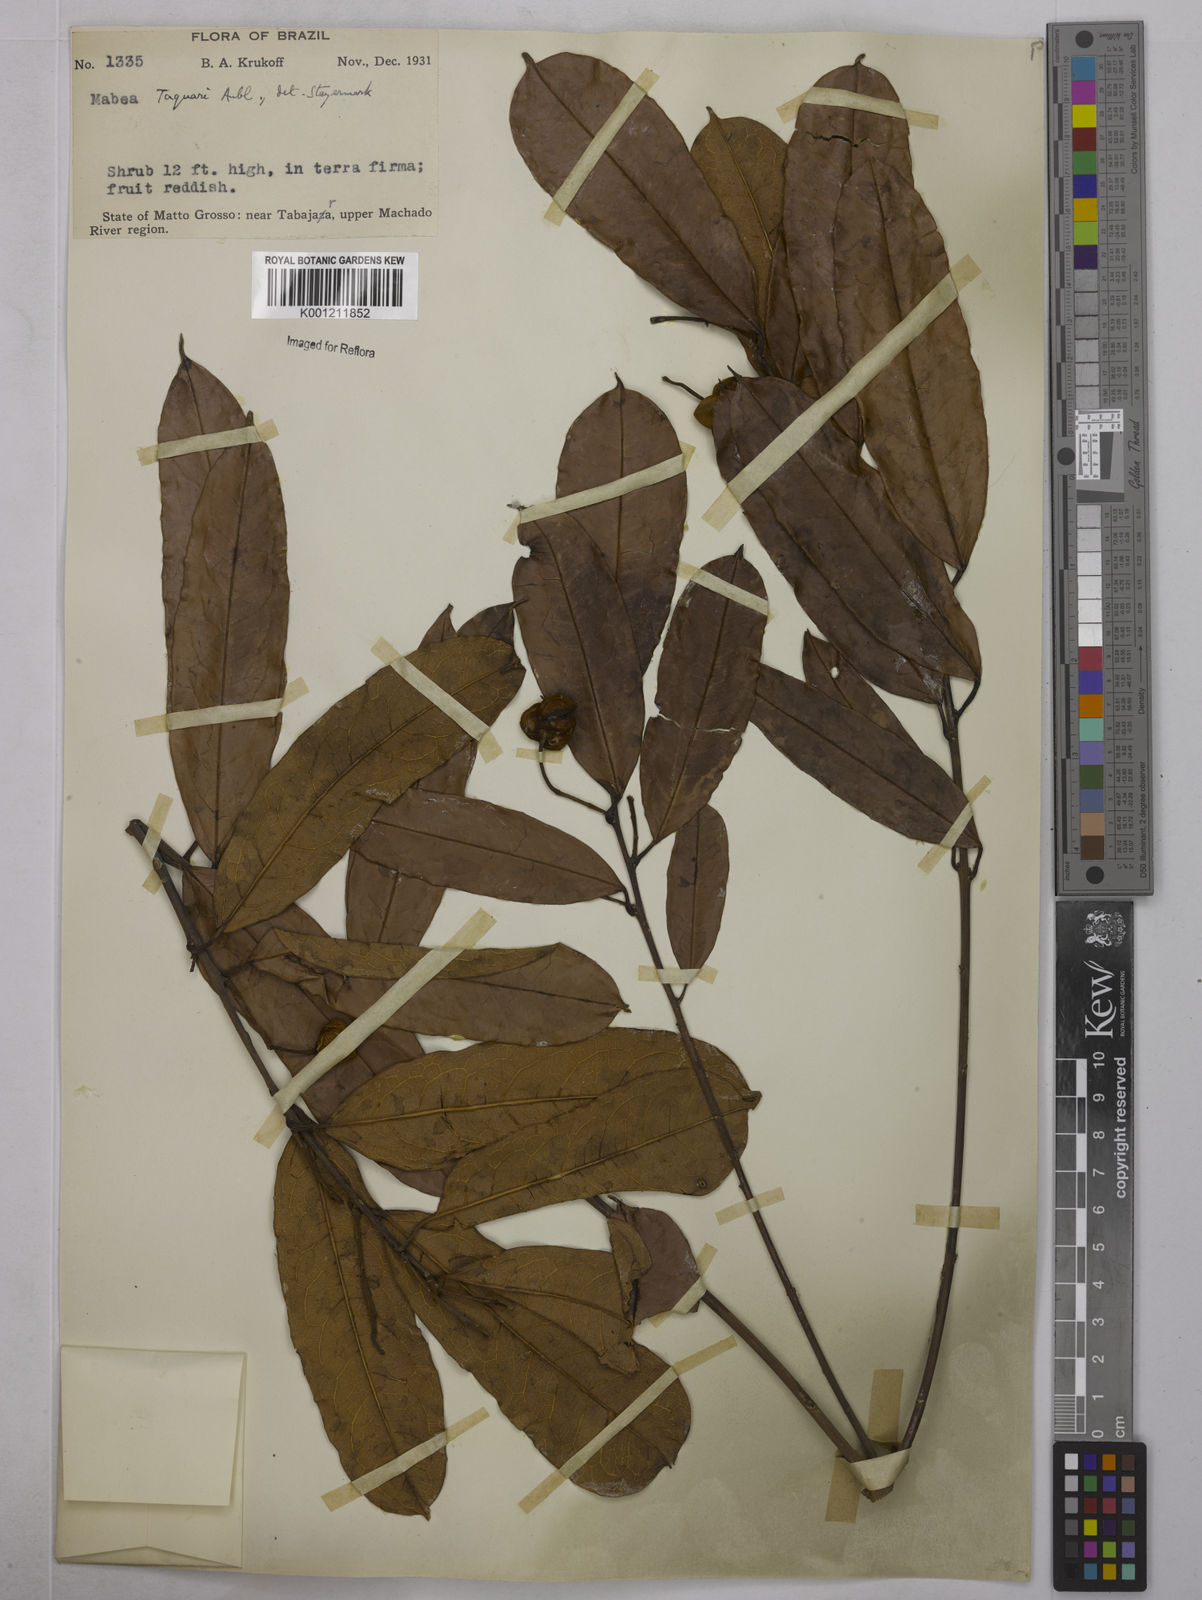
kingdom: Plantae
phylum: Tracheophyta
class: Magnoliopsida
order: Malpighiales
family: Euphorbiaceae
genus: Mabea
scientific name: Mabea taquari
